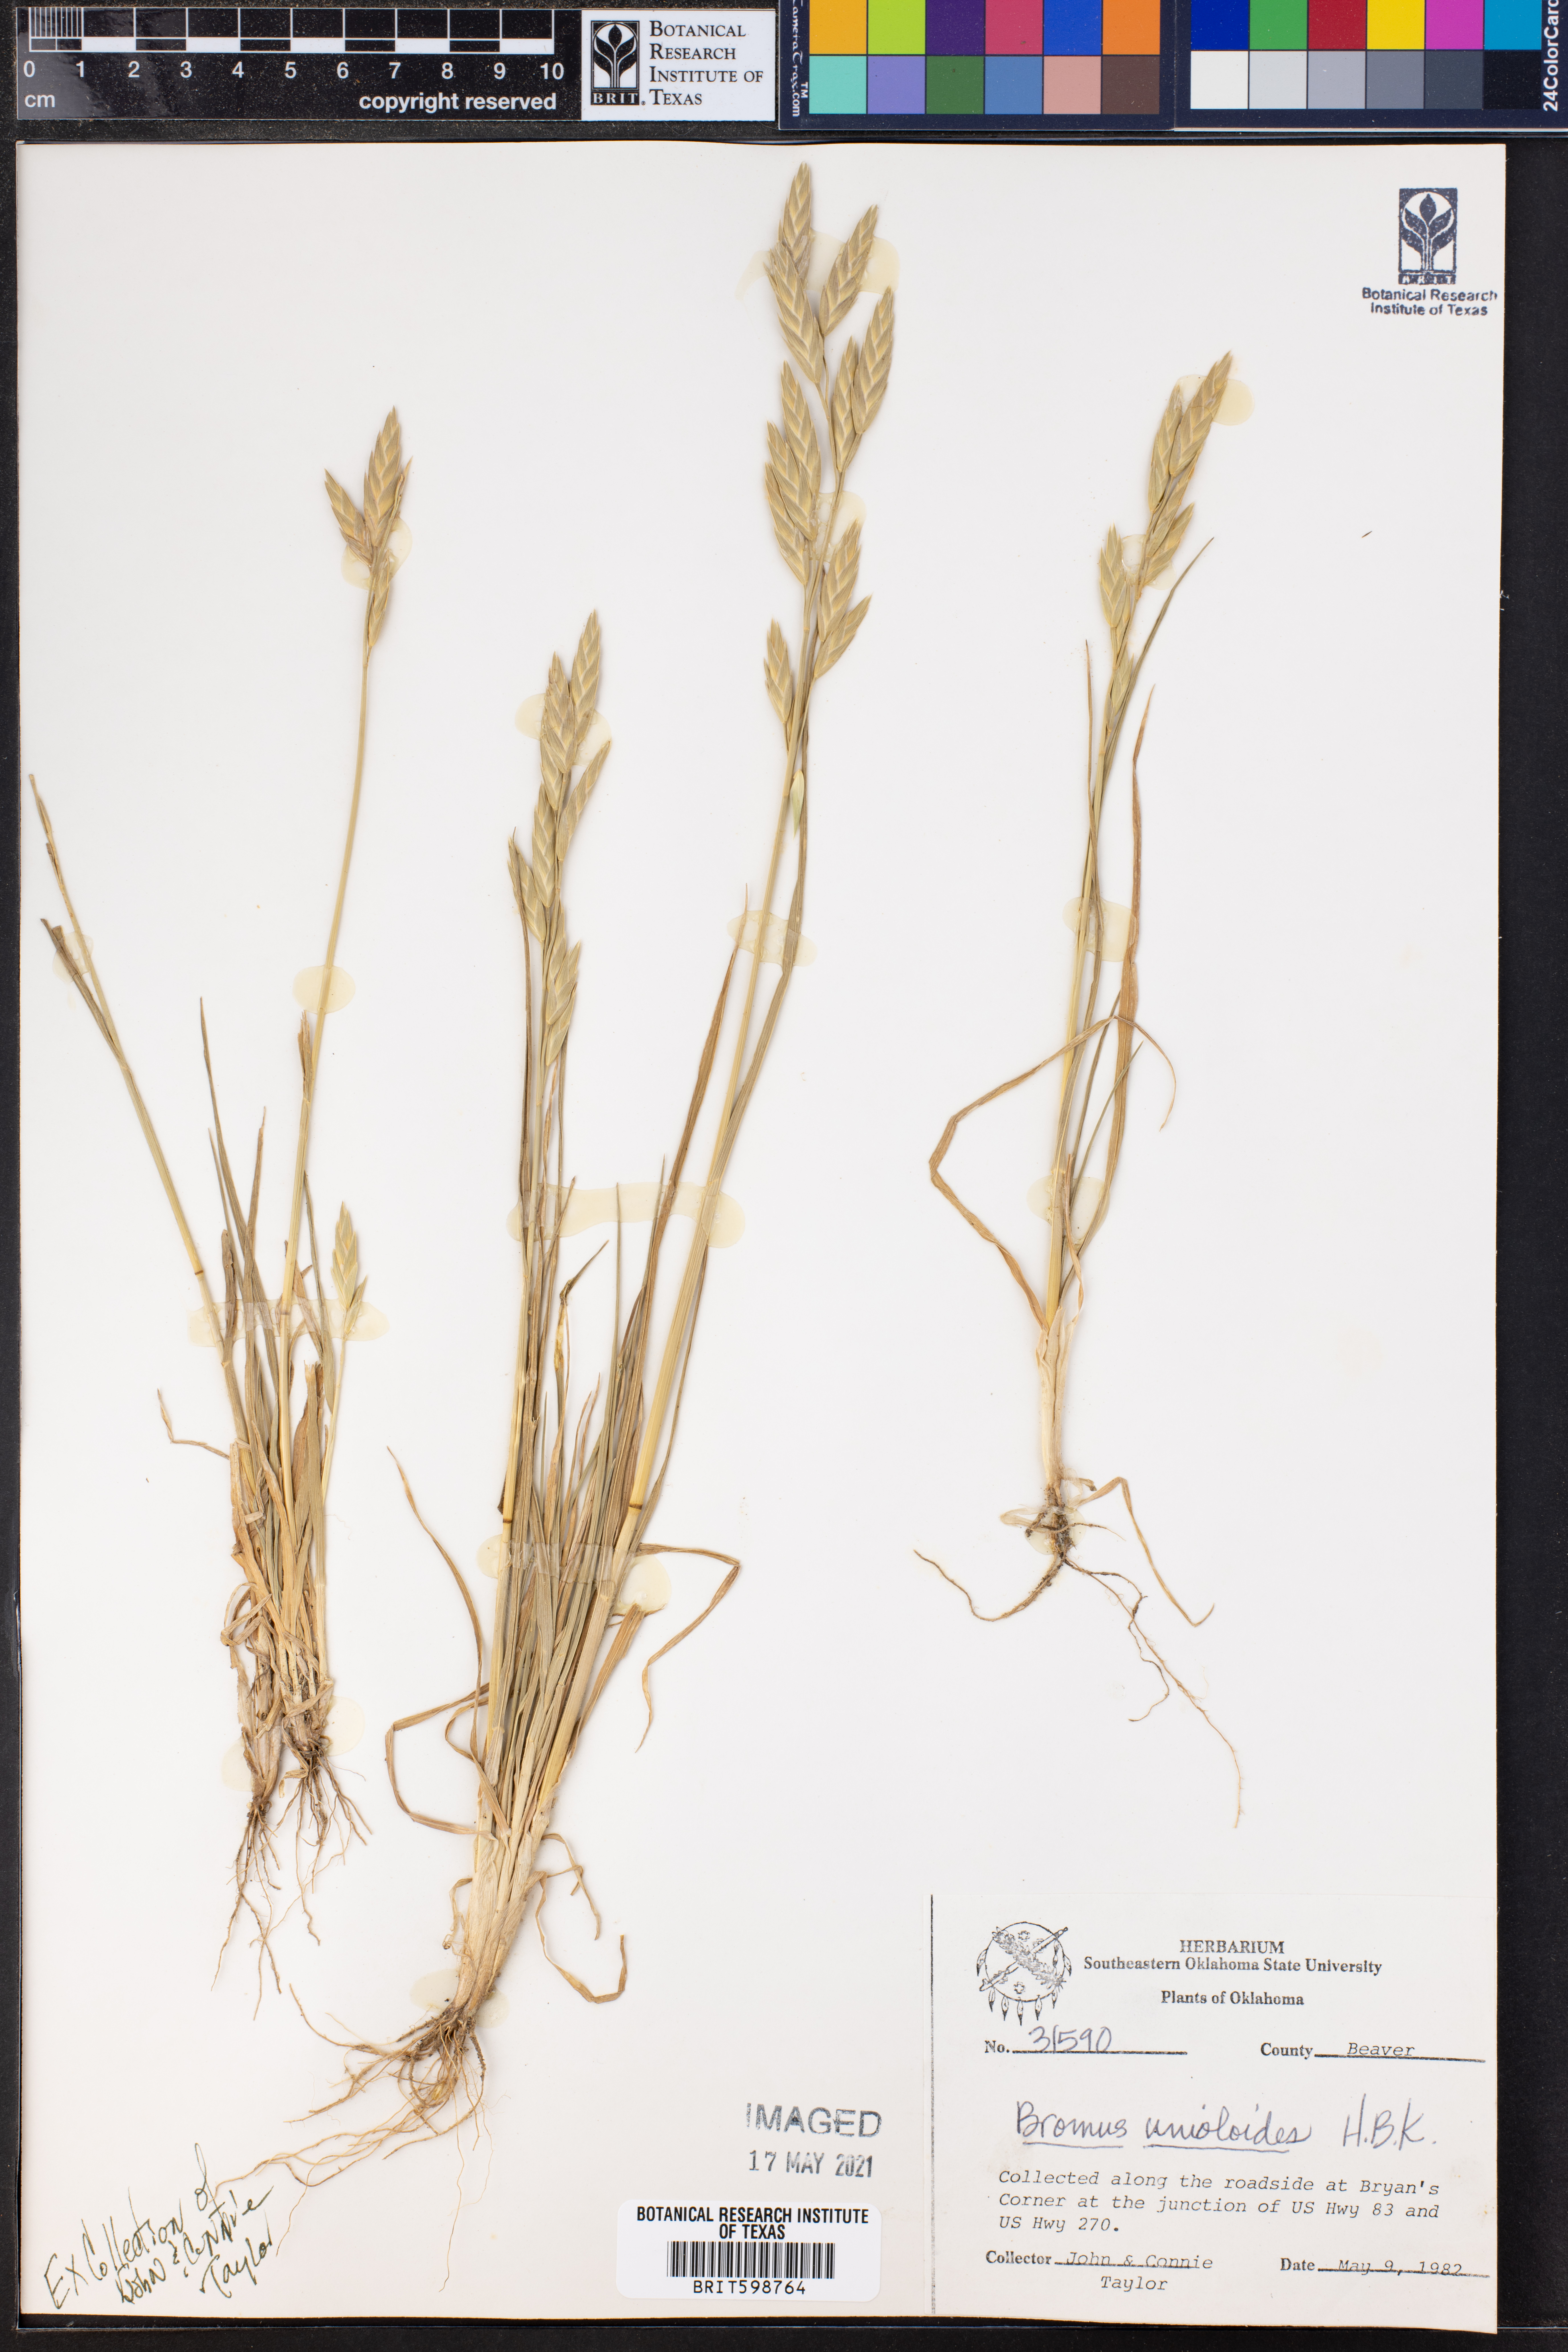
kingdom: Plantae
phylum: Tracheophyta
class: Liliopsida
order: Poales
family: Poaceae
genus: Bromus
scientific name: Bromus catharticus
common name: Rescuegrass
